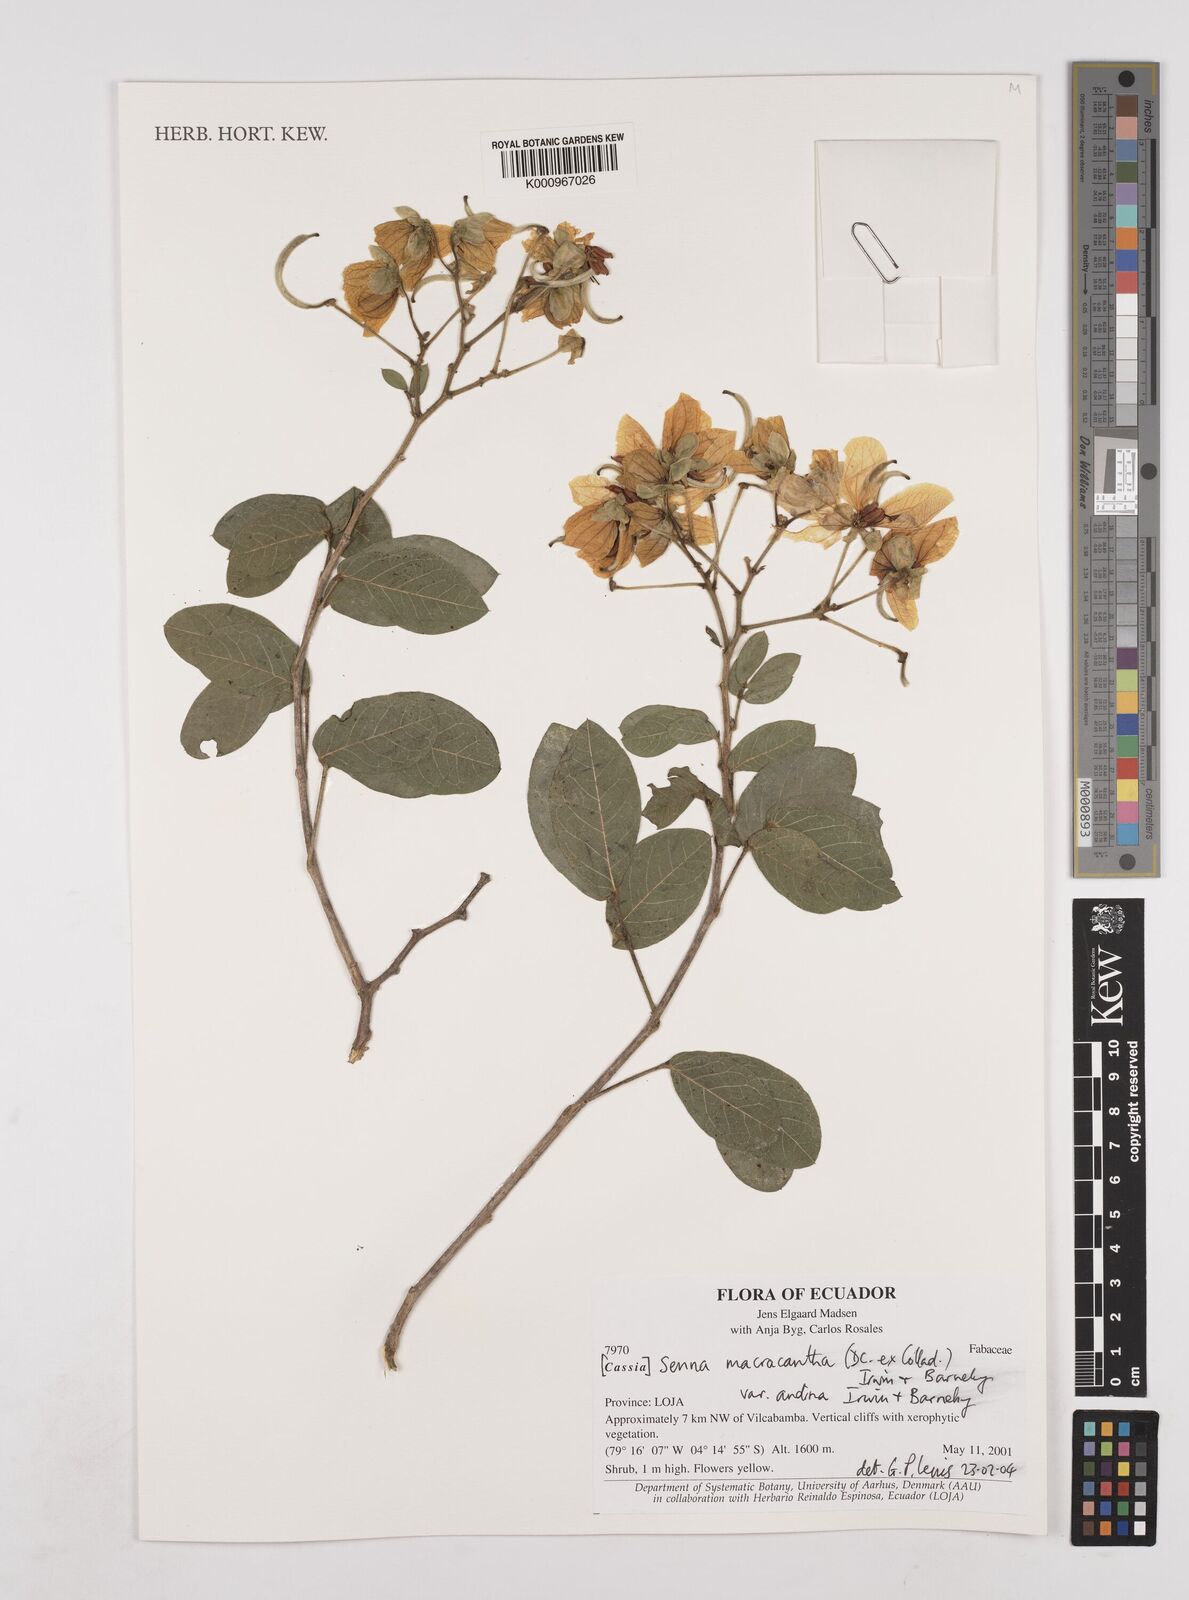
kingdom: Plantae
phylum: Tracheophyta
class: Magnoliopsida
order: Fabales
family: Fabaceae
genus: Senna
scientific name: Senna
